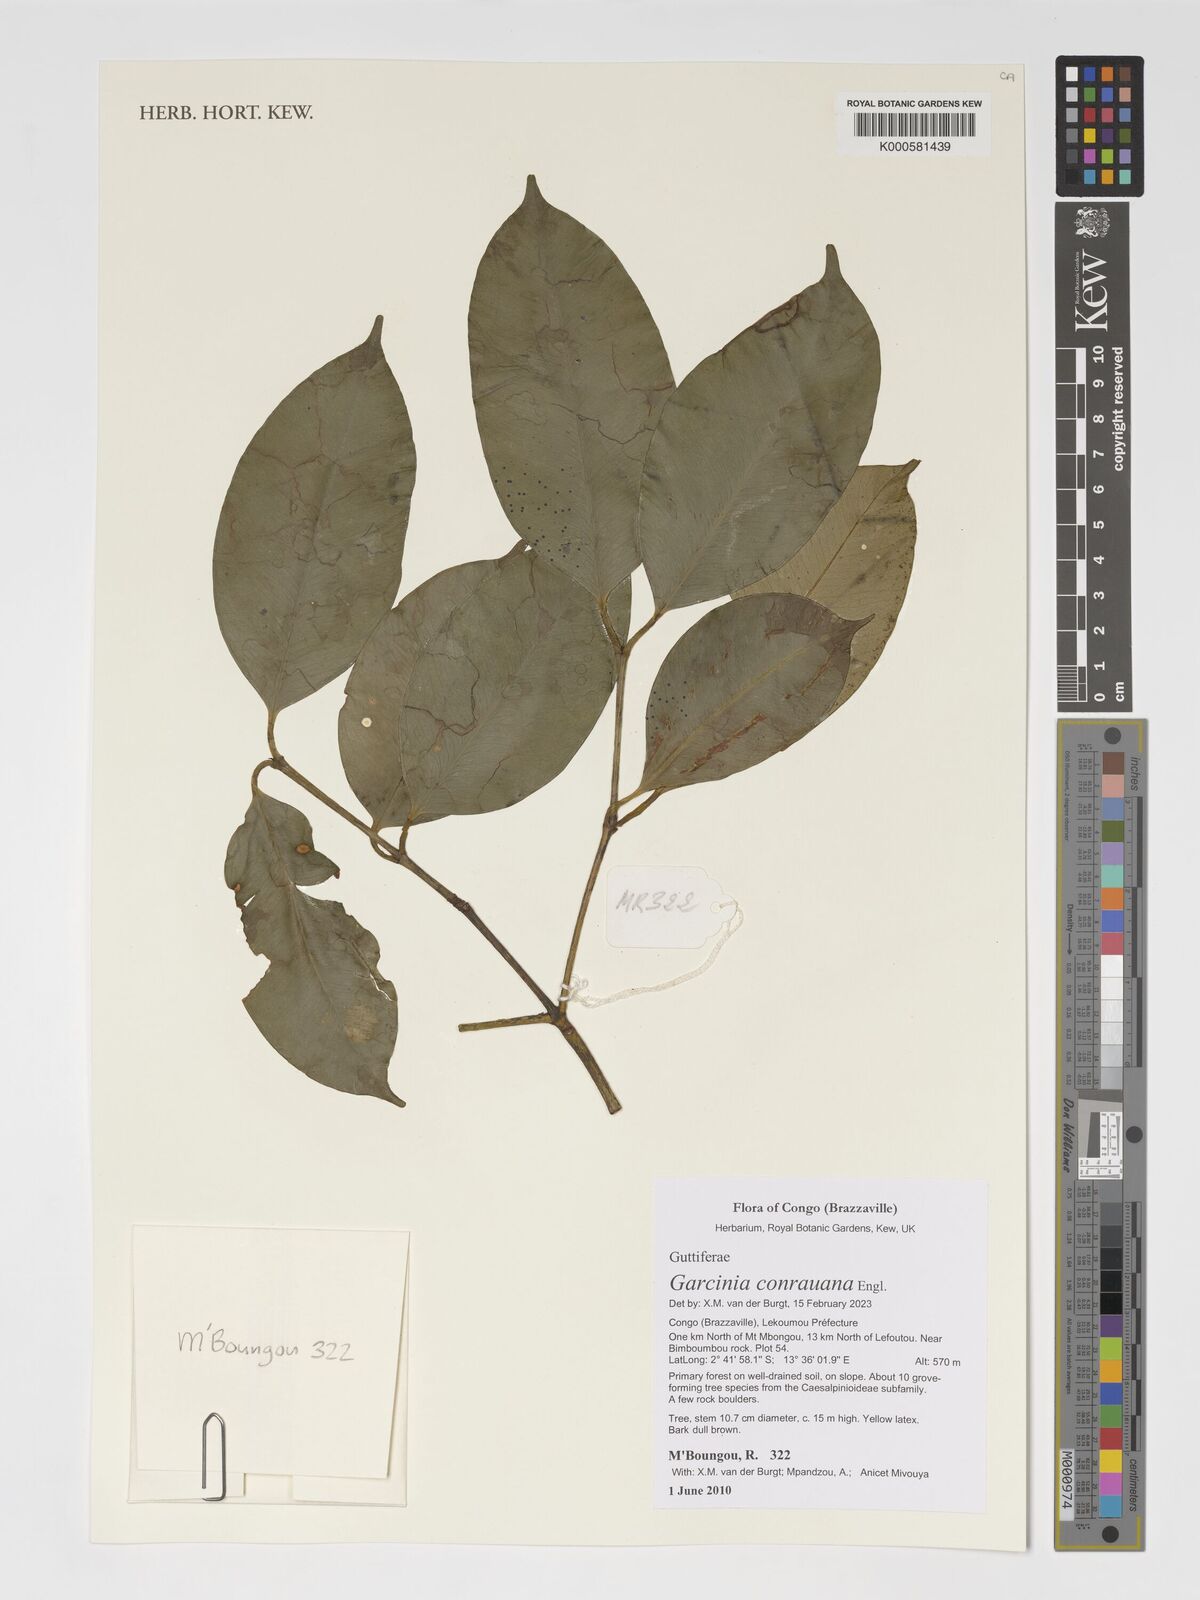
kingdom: Plantae
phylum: Tracheophyta
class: Magnoliopsida
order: Malpighiales
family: Clusiaceae
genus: Garcinia
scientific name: Garcinia conrauana
